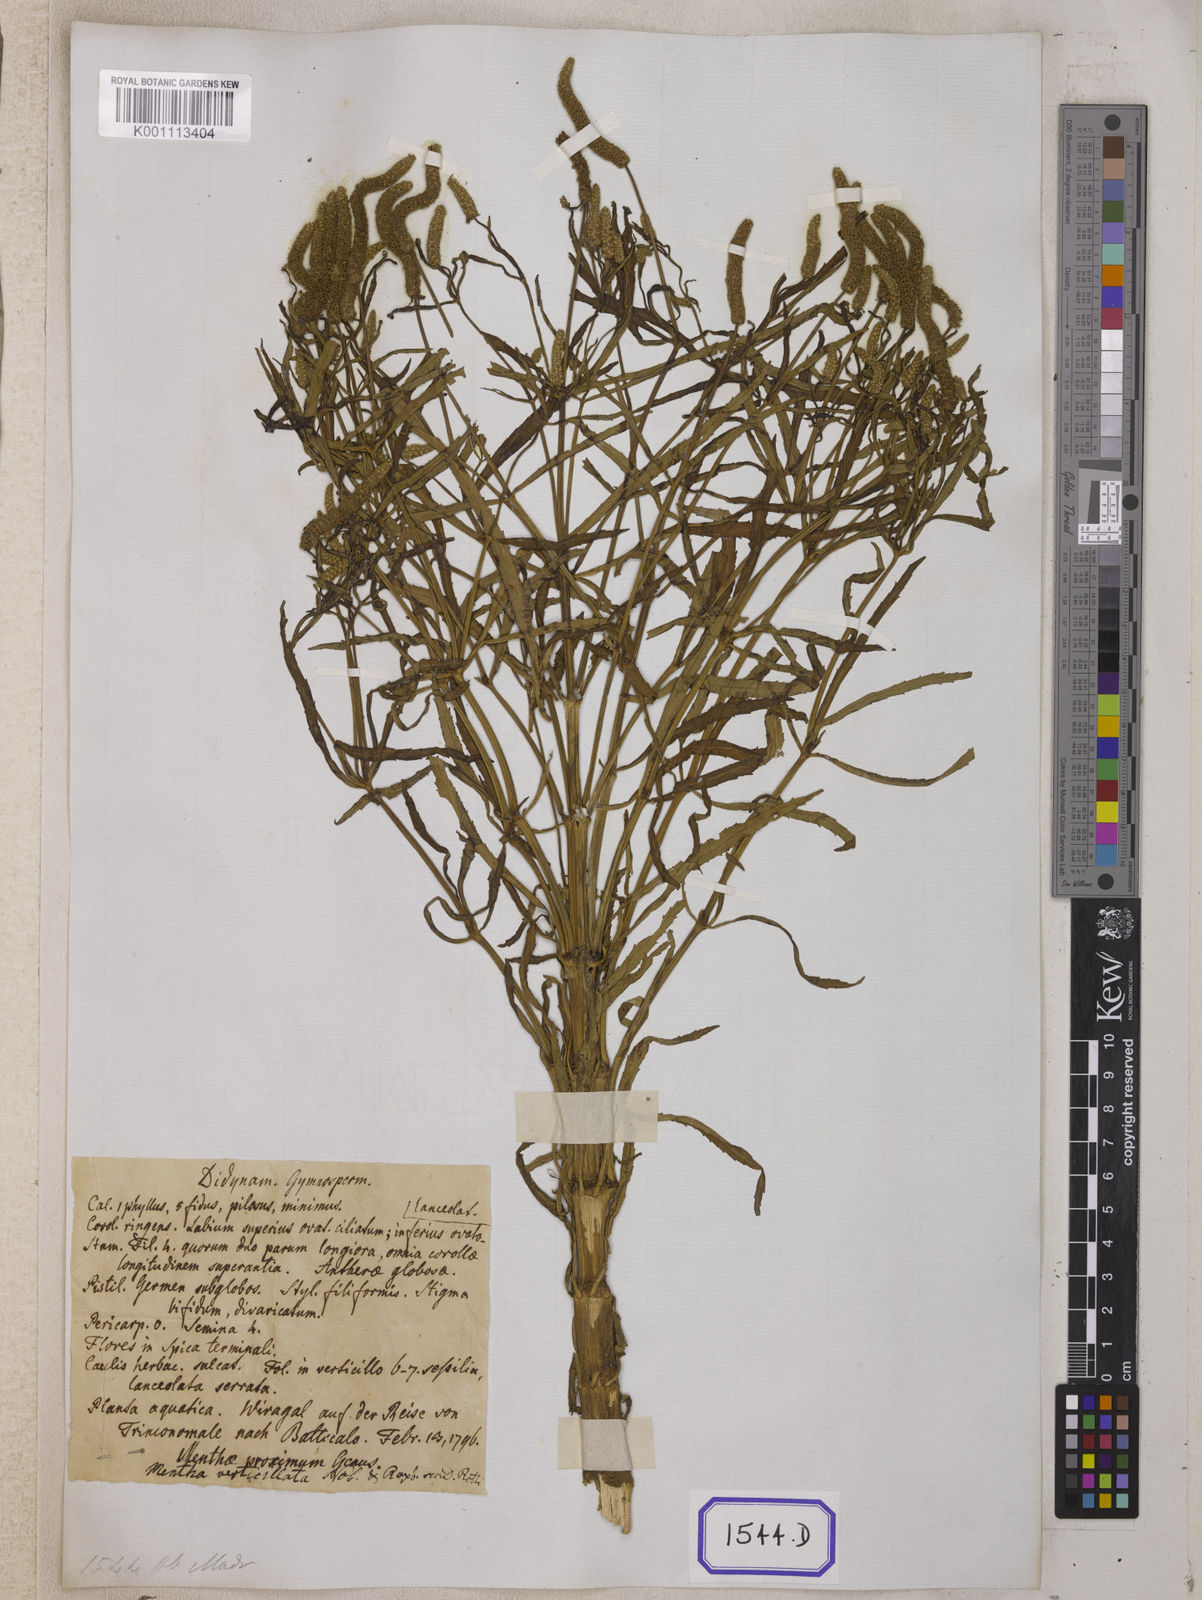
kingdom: Plantae
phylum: Tracheophyta
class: Magnoliopsida
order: Lamiales
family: Lamiaceae
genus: Pogostemon
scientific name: Pogostemon
